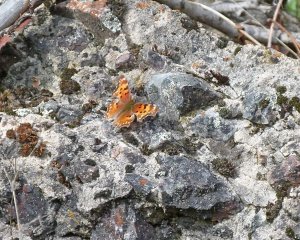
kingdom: Animalia
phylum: Arthropoda
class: Insecta
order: Lepidoptera
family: Nymphalidae
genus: Polygonia
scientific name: Polygonia gracilis
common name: Hoary Comma
